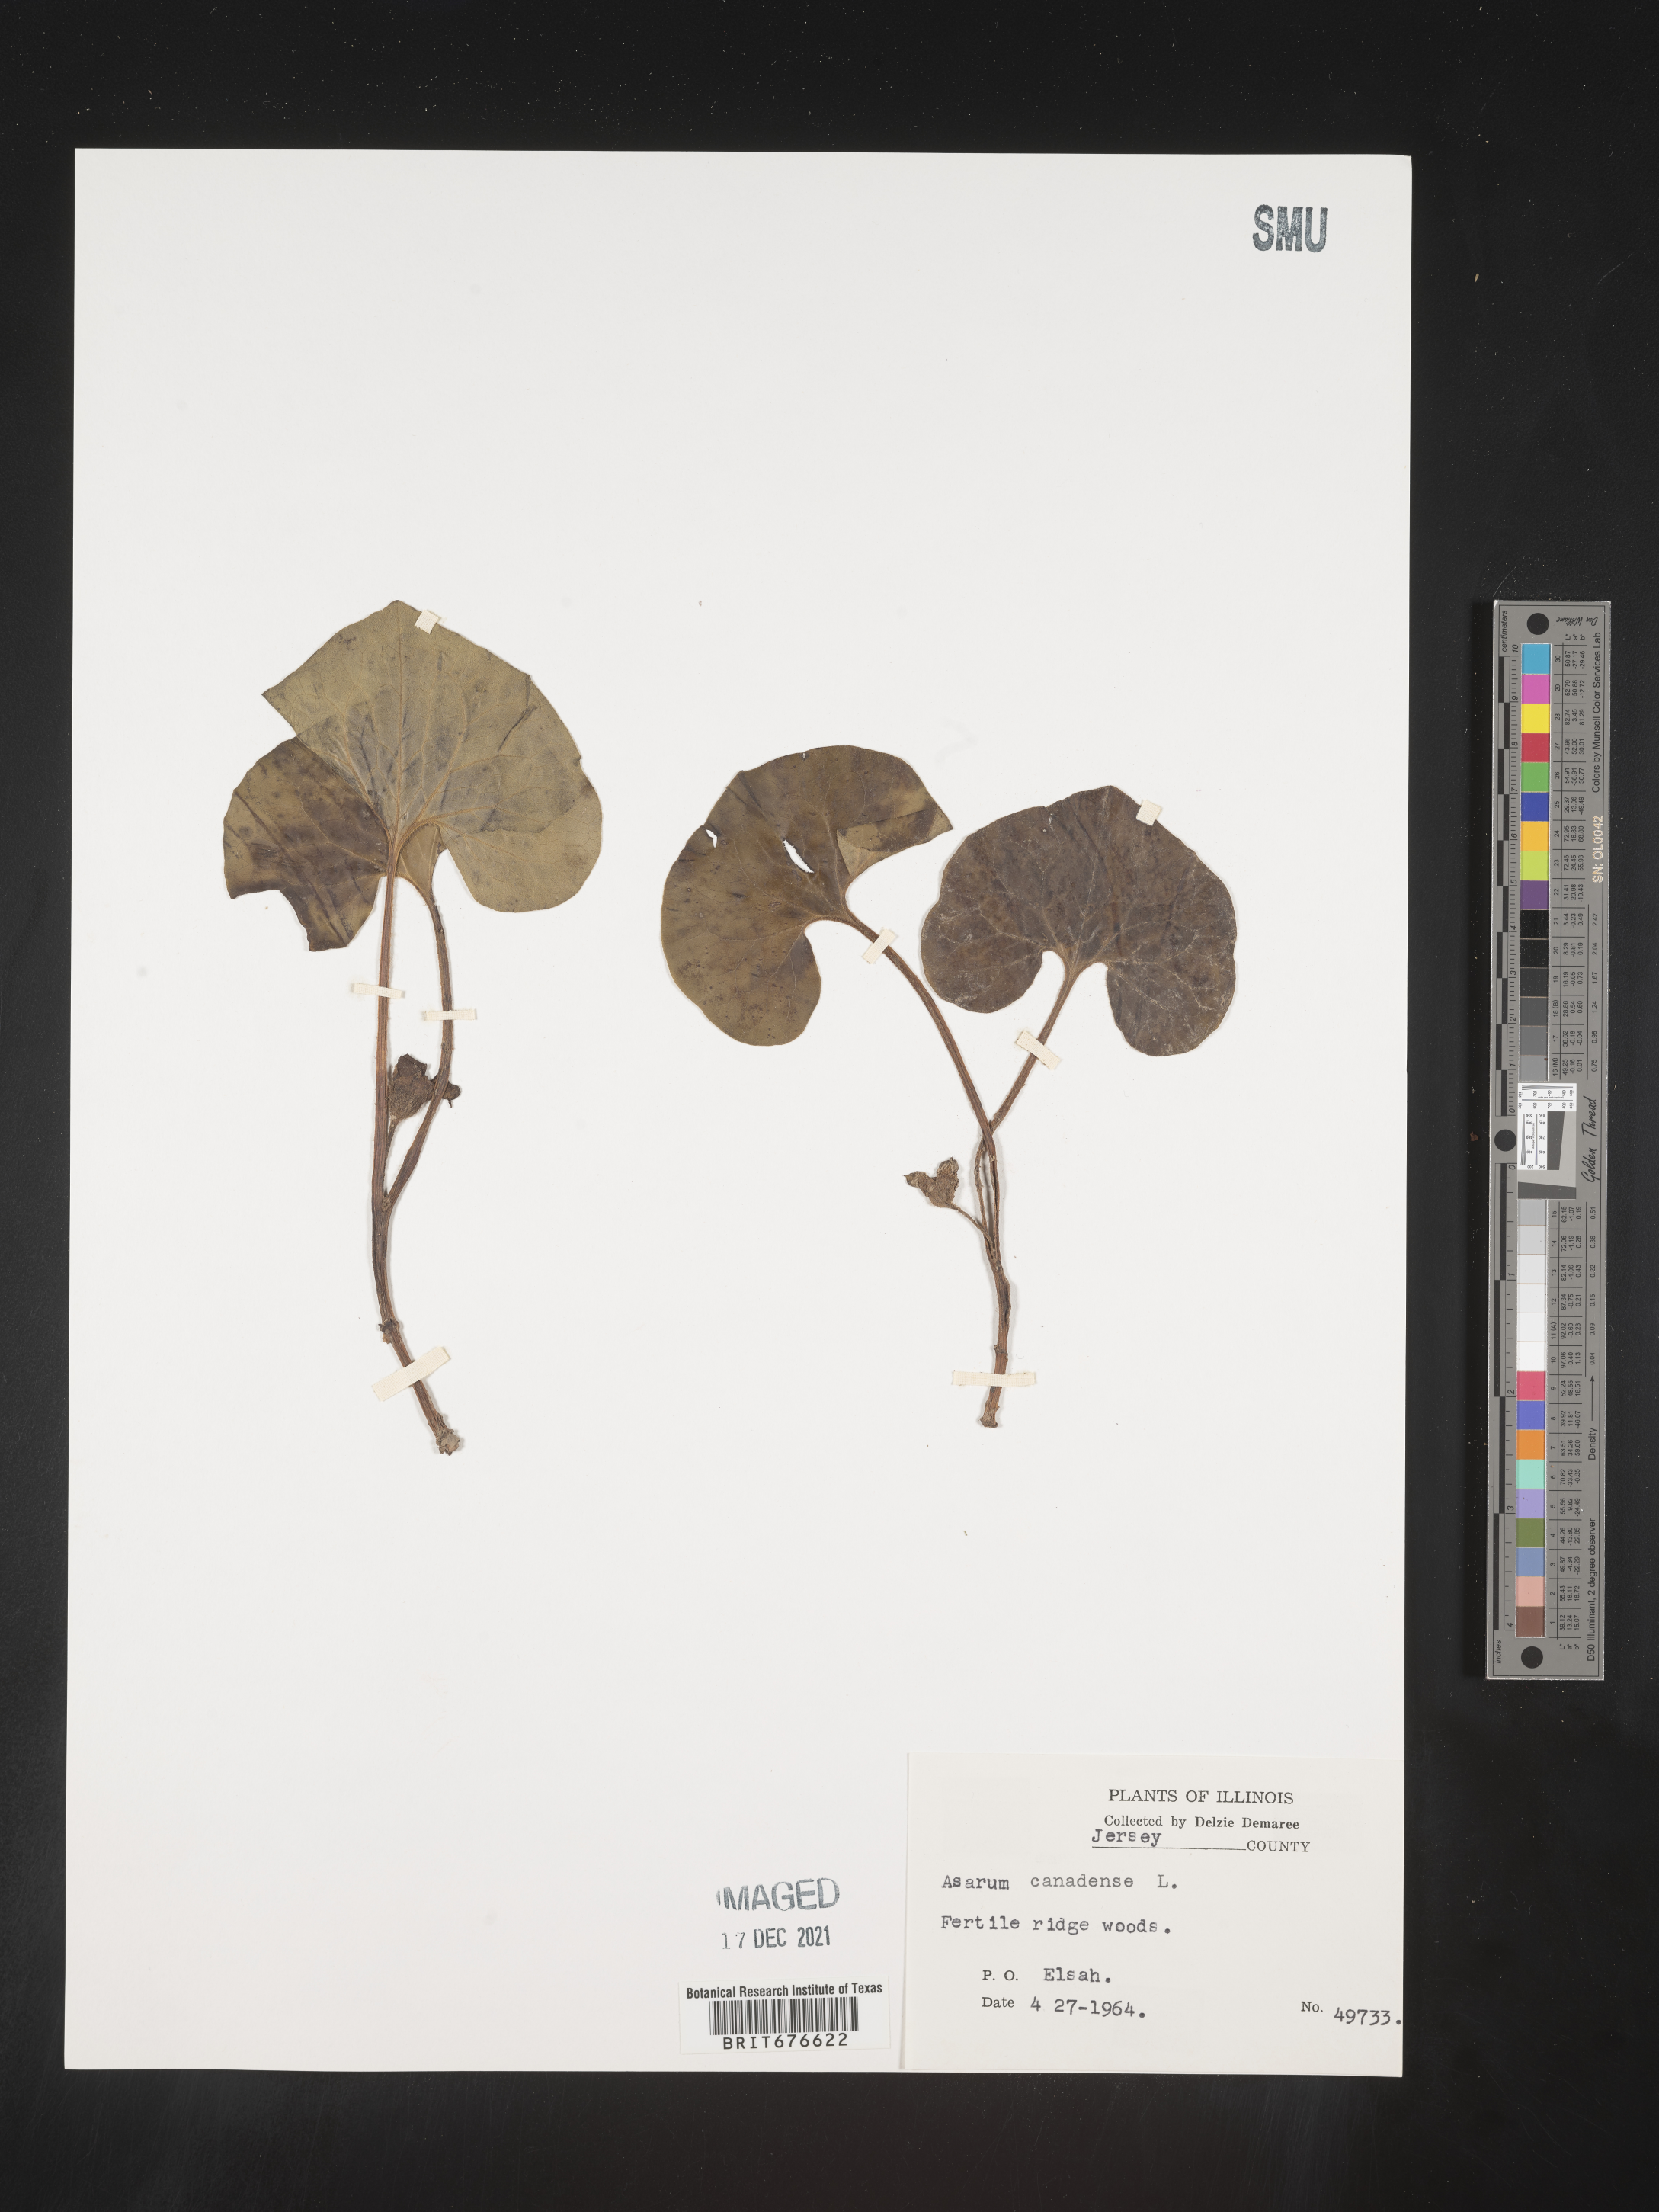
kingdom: Plantae
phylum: Tracheophyta
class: Magnoliopsida
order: Piperales
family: Aristolochiaceae
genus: Asarum
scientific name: Asarum canadense
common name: Wild ginger
